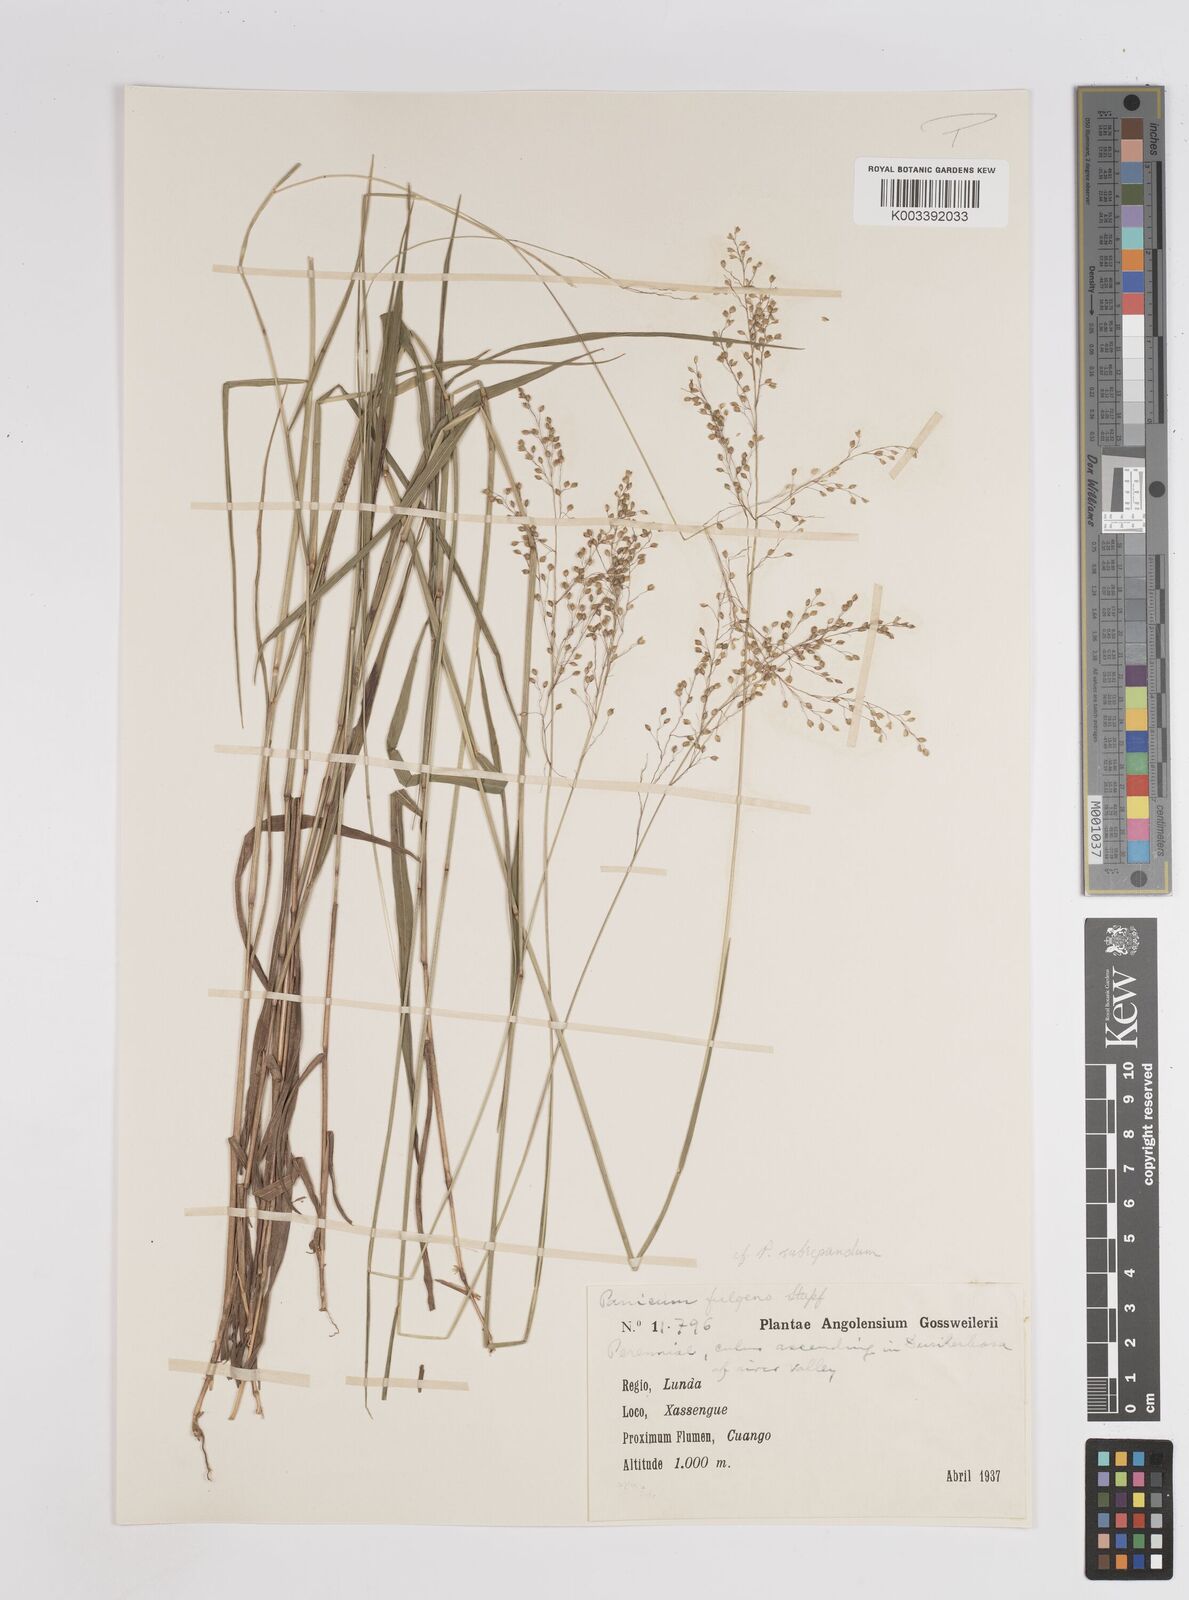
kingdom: Plantae
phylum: Tracheophyta
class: Liliopsida
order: Poales
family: Poaceae
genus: Trichanthecium
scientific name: Trichanthecium nervatum
